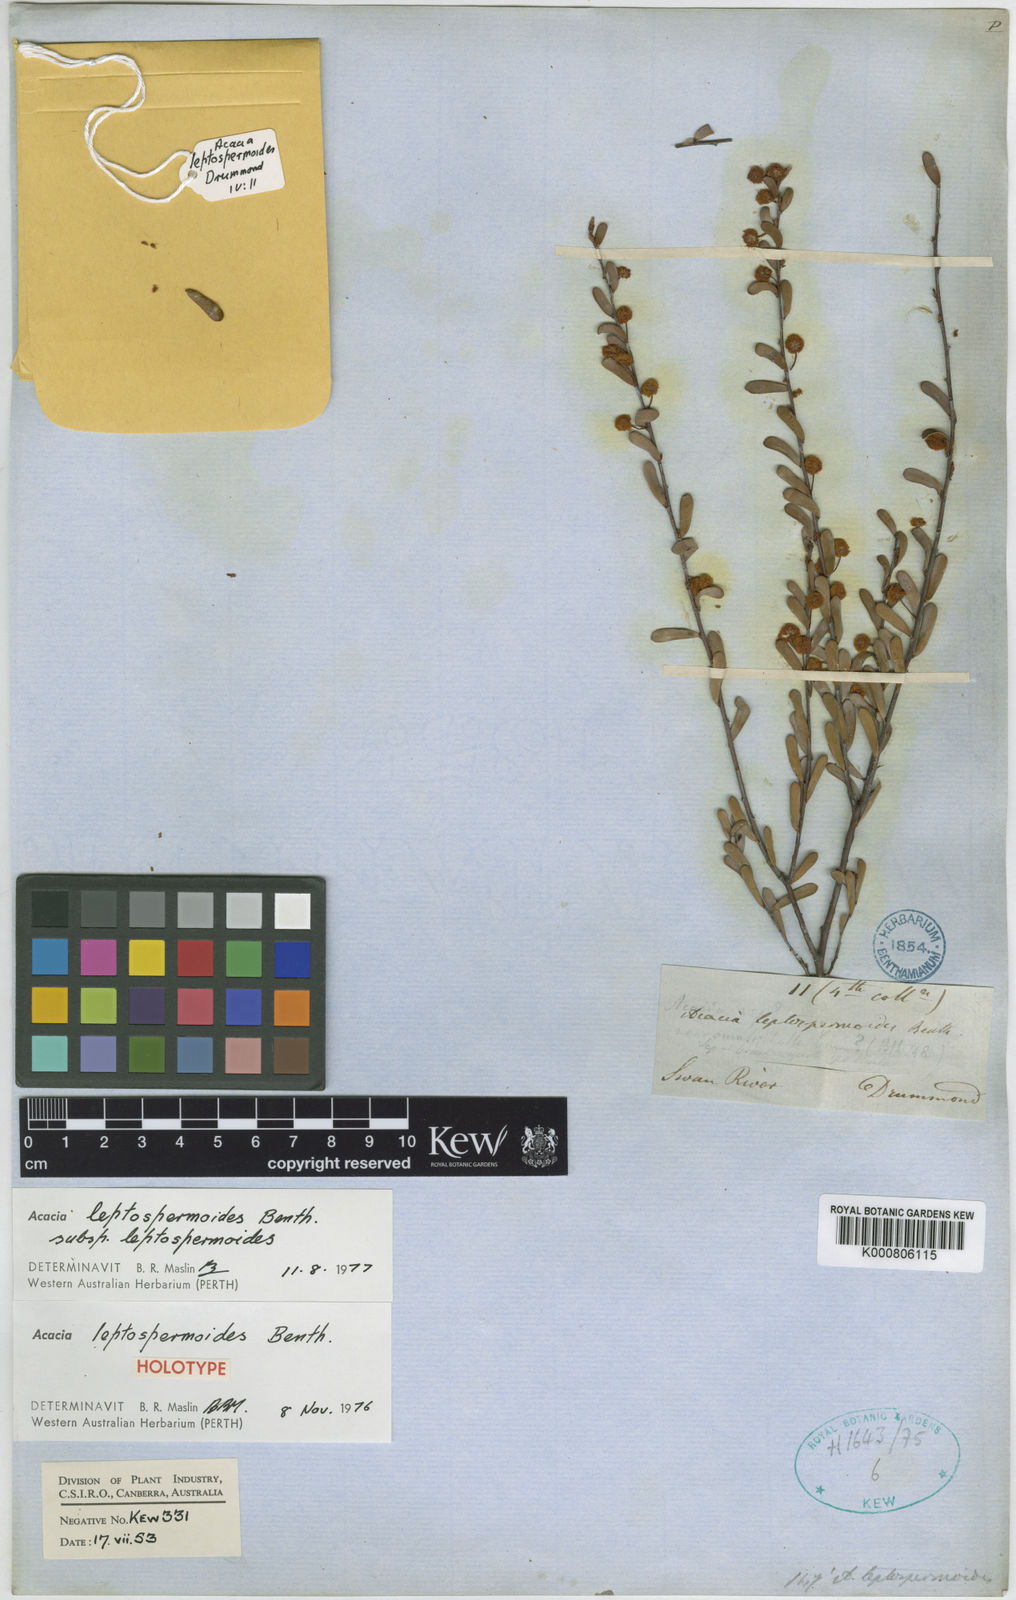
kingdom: Plantae
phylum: Tracheophyta
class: Magnoliopsida
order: Fabales
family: Fabaceae
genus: Acacia
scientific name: Acacia leptospermoides
